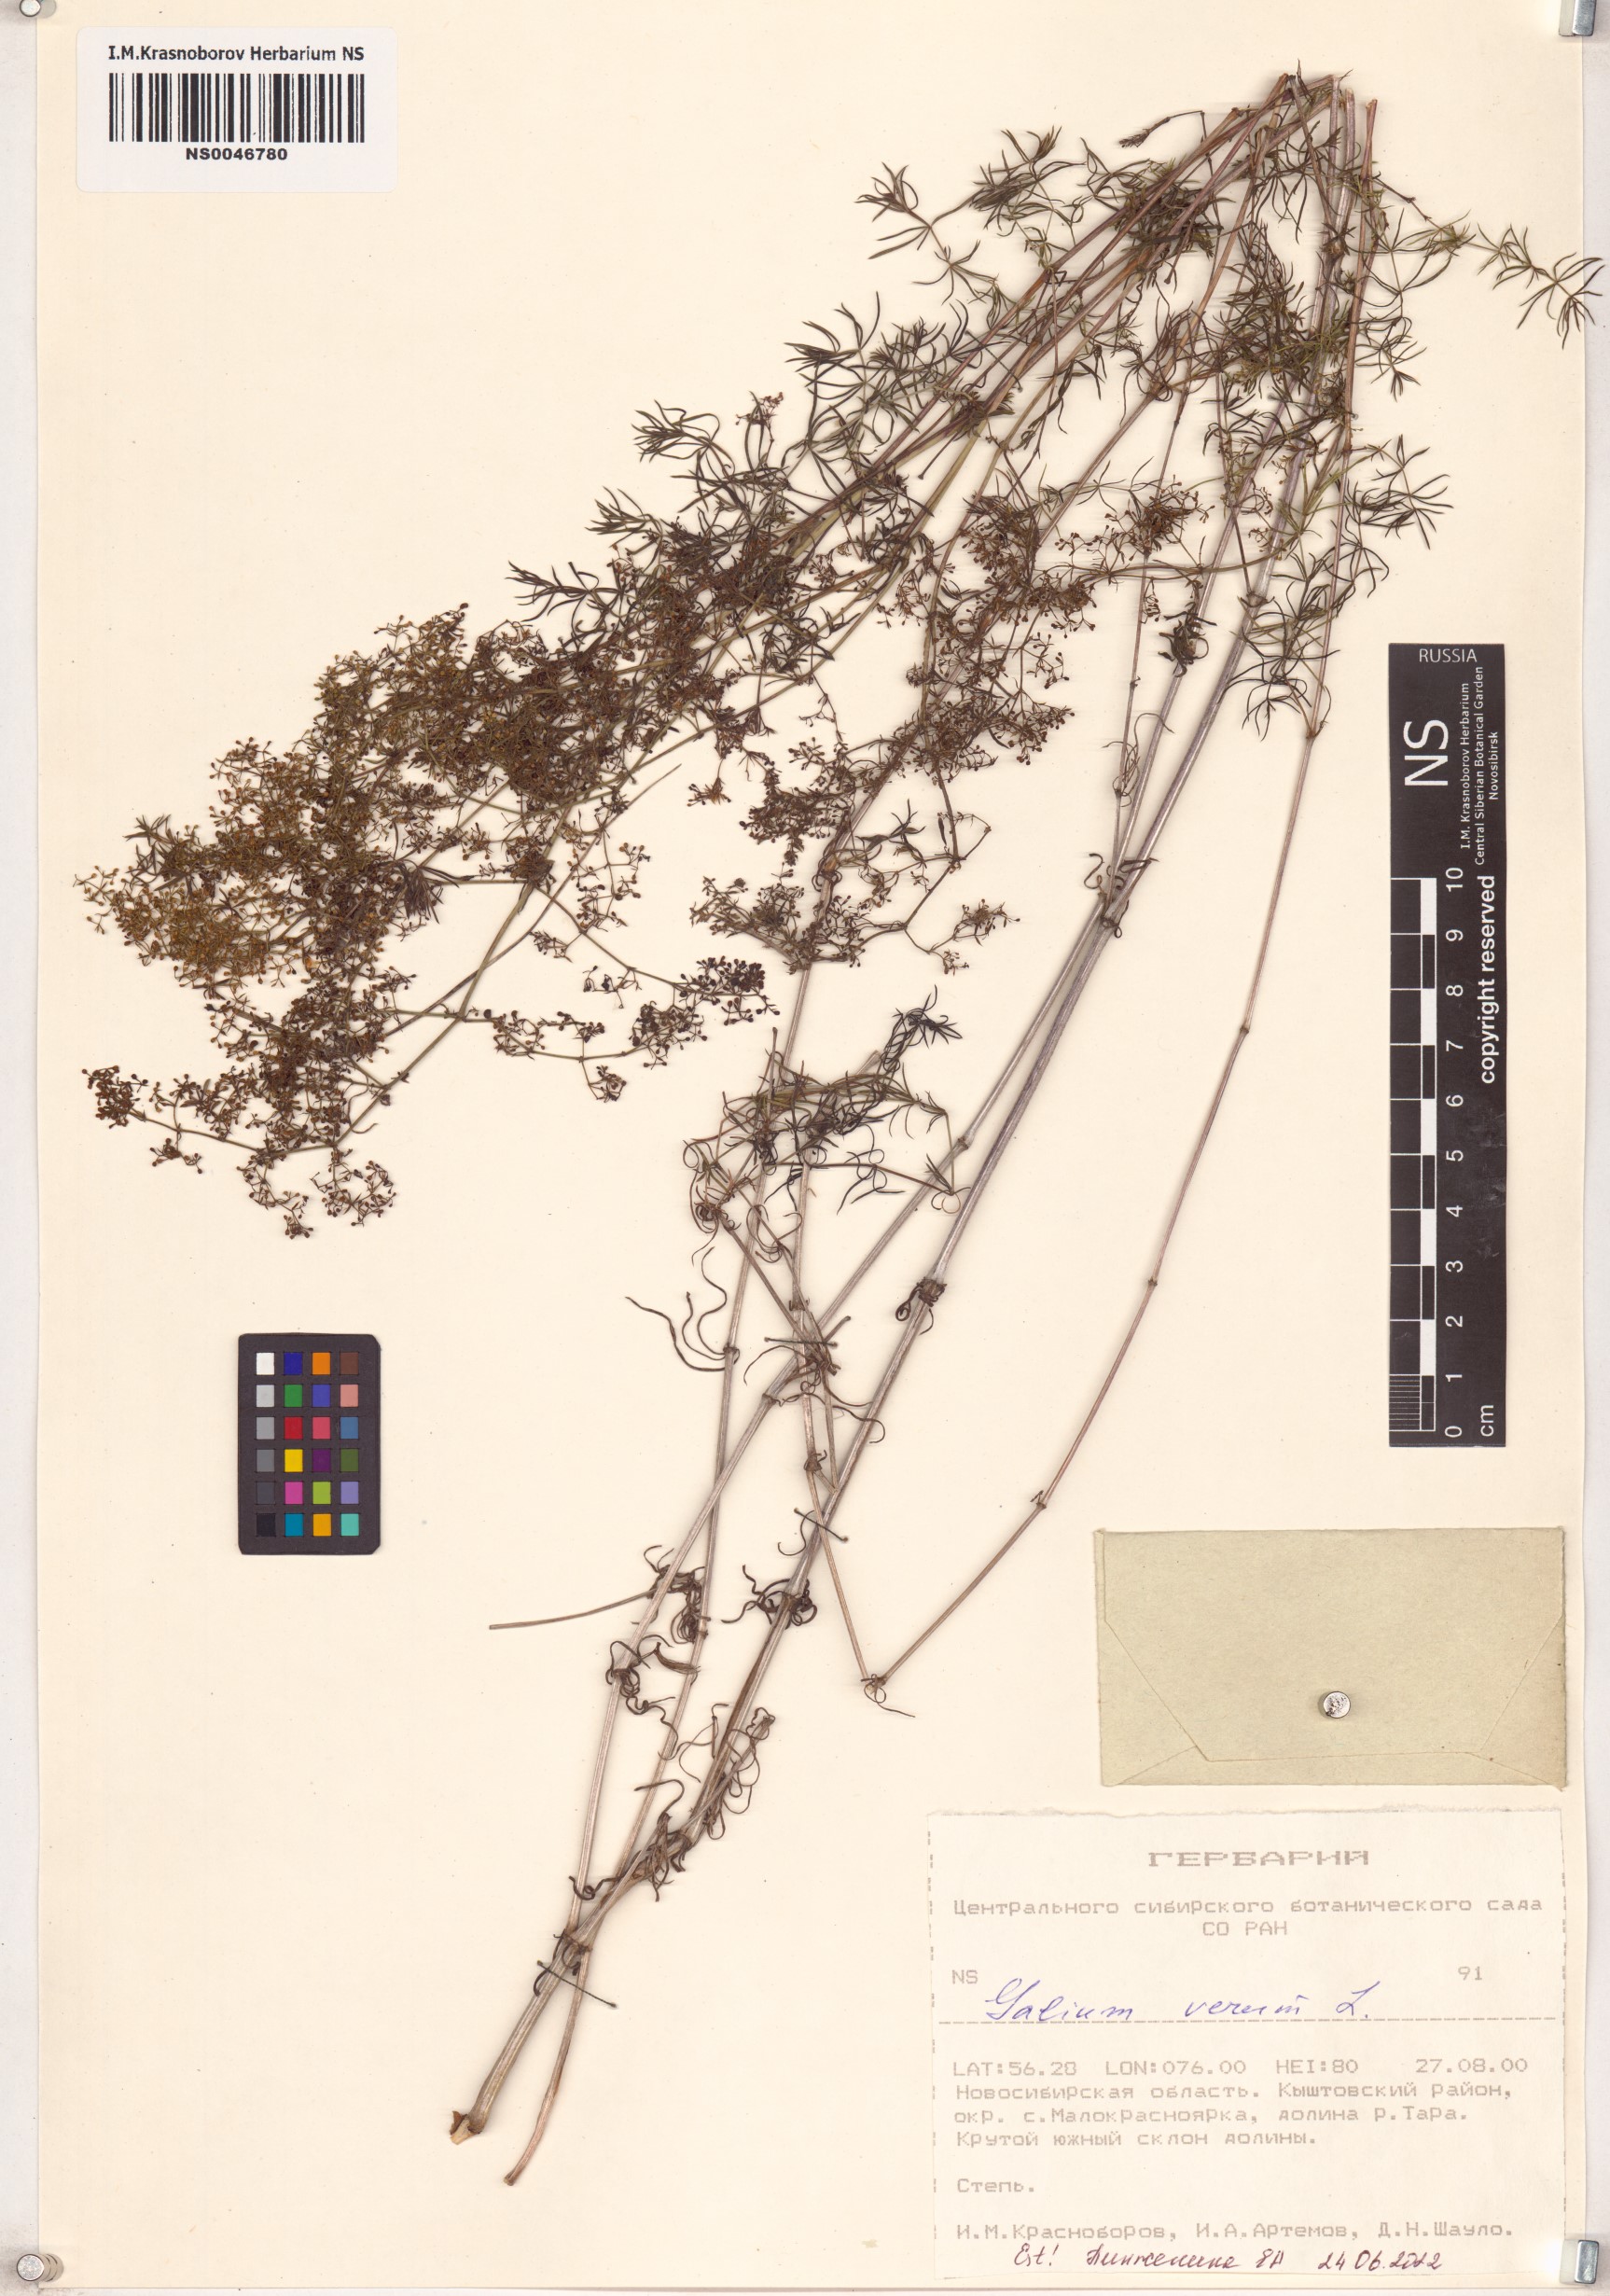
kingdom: Plantae
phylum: Tracheophyta
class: Magnoliopsida
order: Gentianales
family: Rubiaceae
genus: Galium
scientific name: Galium verum
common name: Lady's bedstraw
